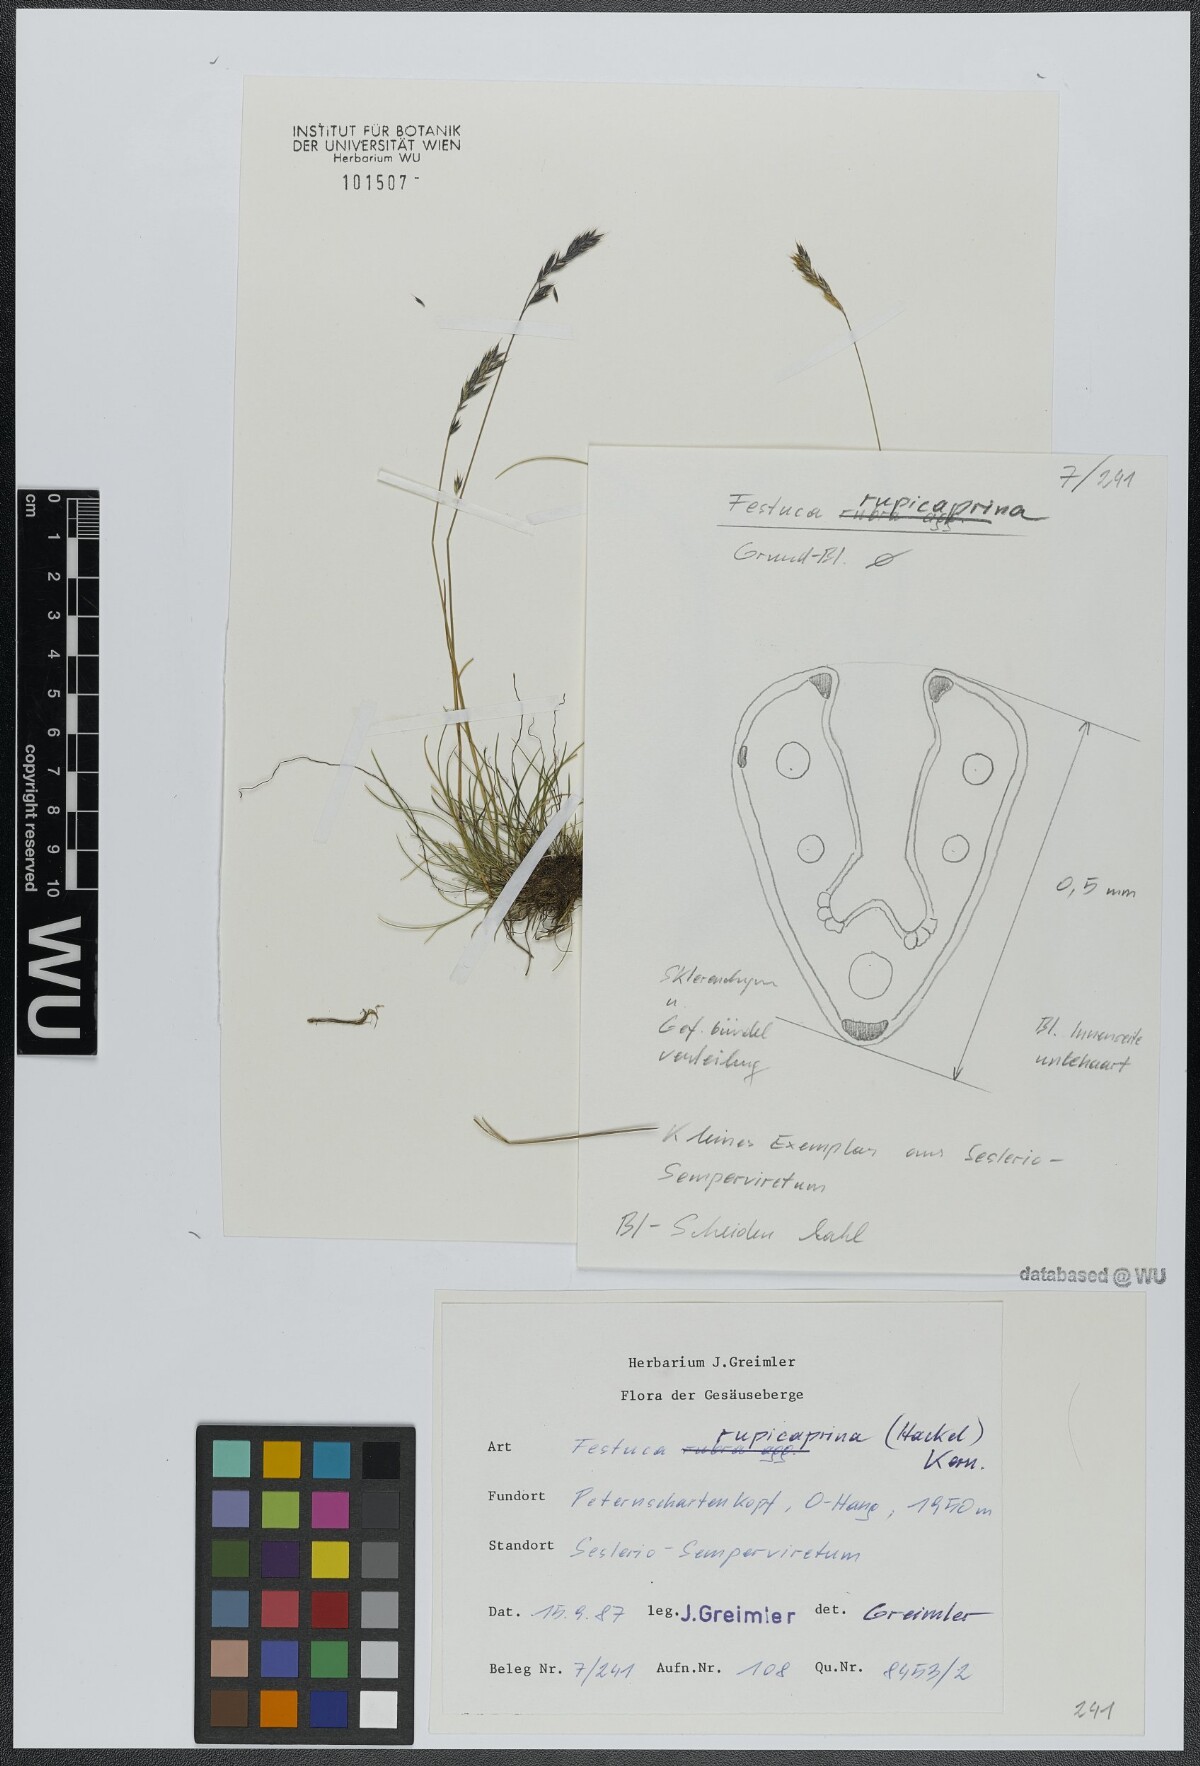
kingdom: Plantae
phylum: Tracheophyta
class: Liliopsida
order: Poales
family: Poaceae
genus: Festuca
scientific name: Festuca rupicaprina
